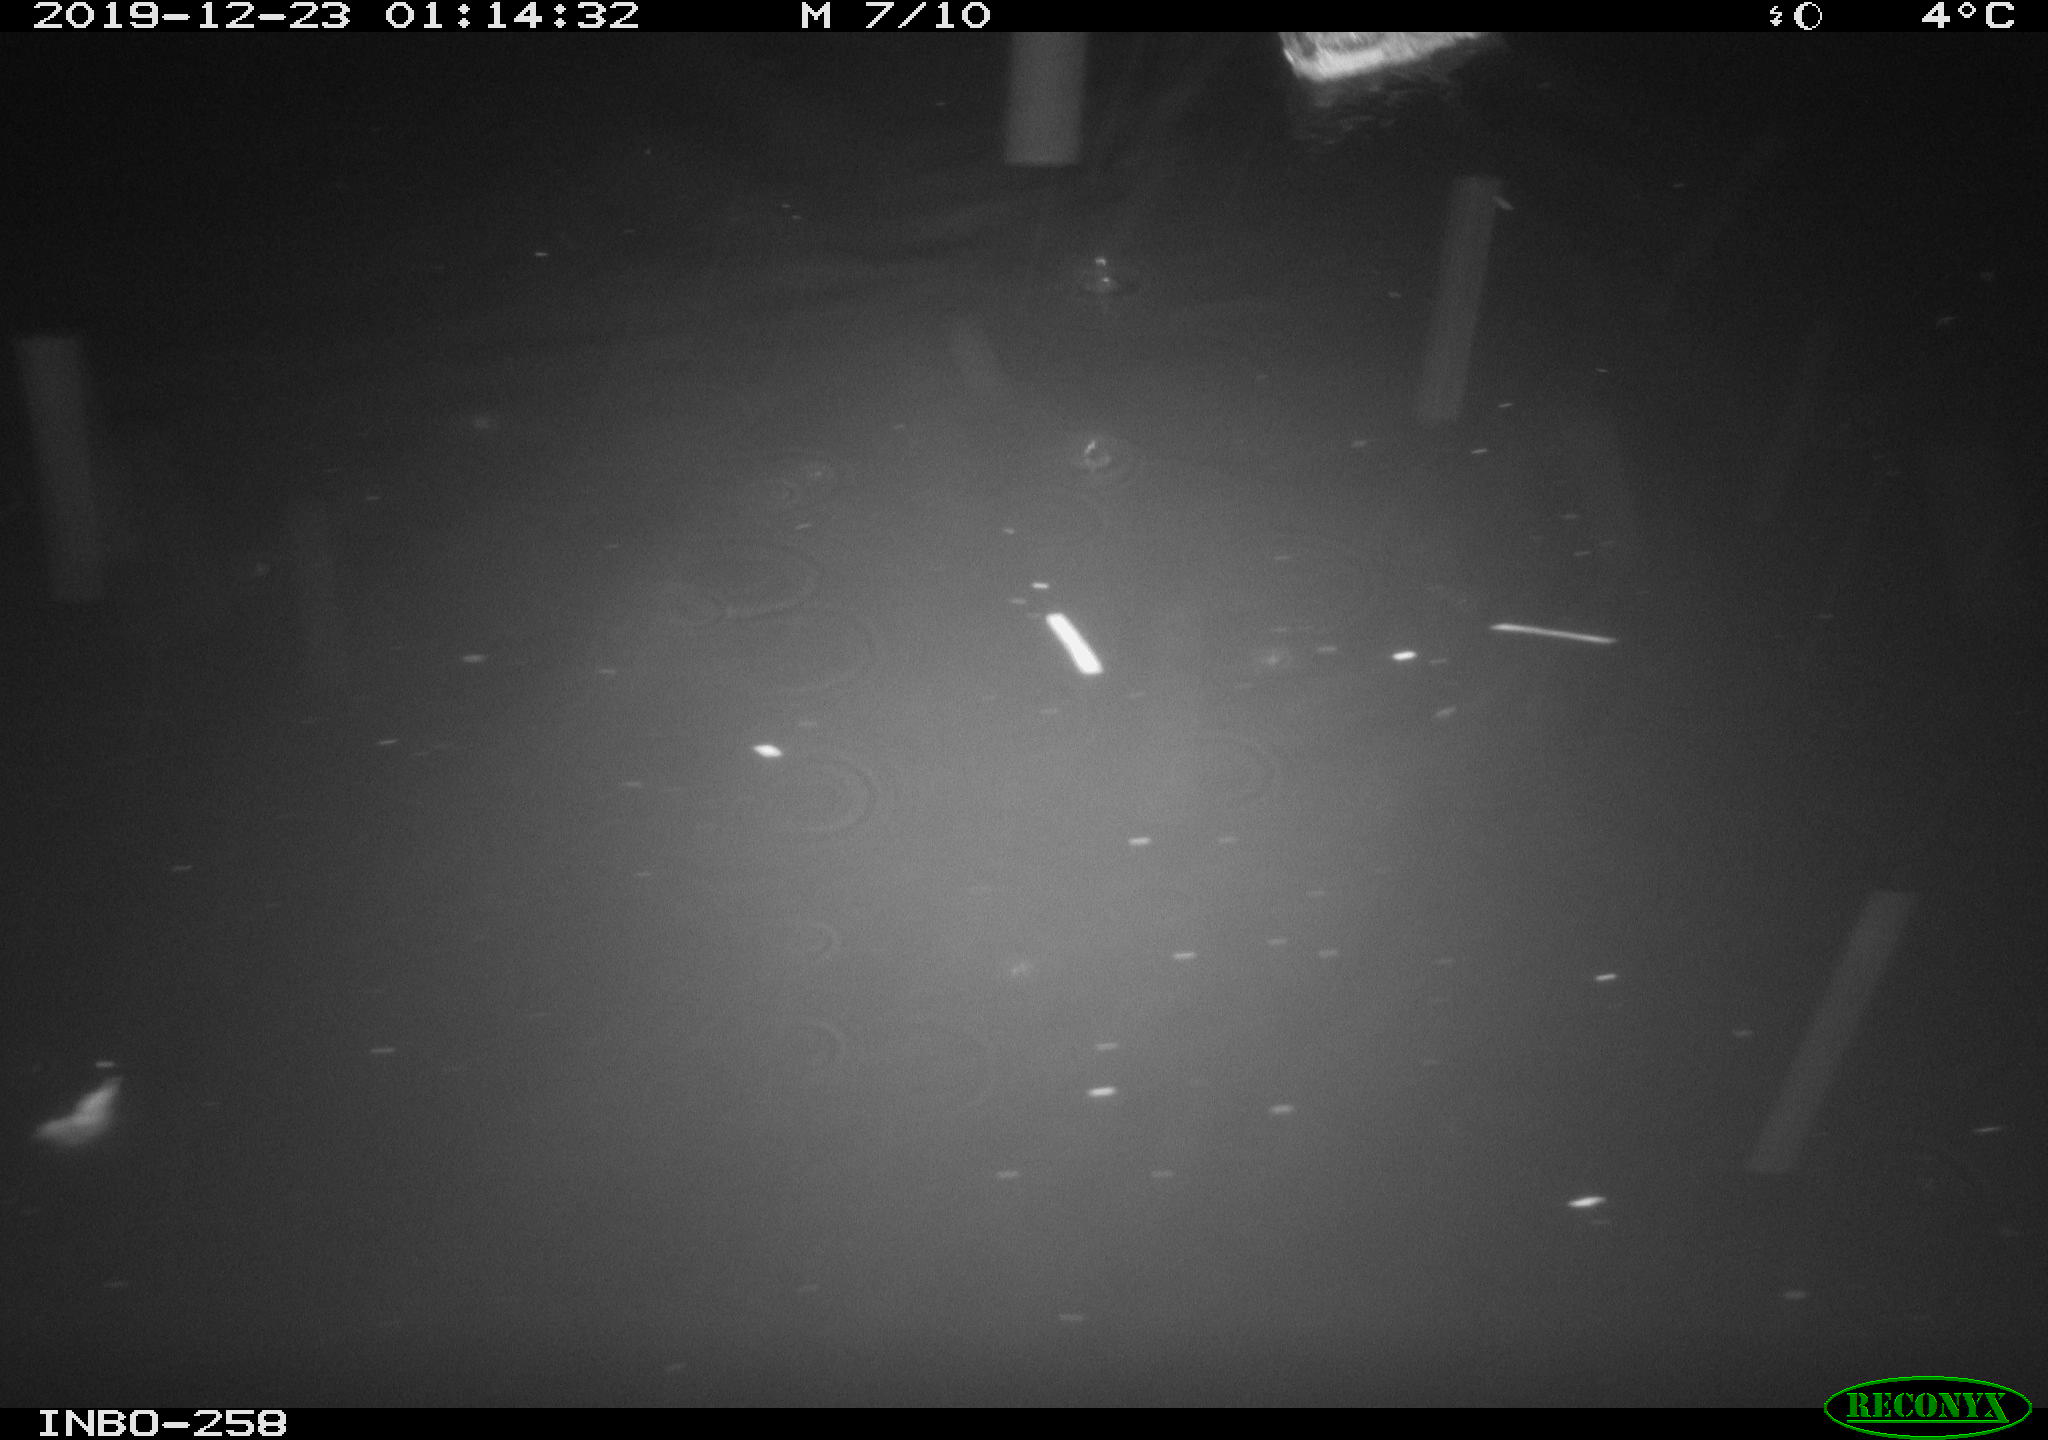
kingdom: Animalia
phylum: Chordata
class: Aves
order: Anseriformes
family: Anatidae
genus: Anas
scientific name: Anas platyrhynchos
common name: Mallard
